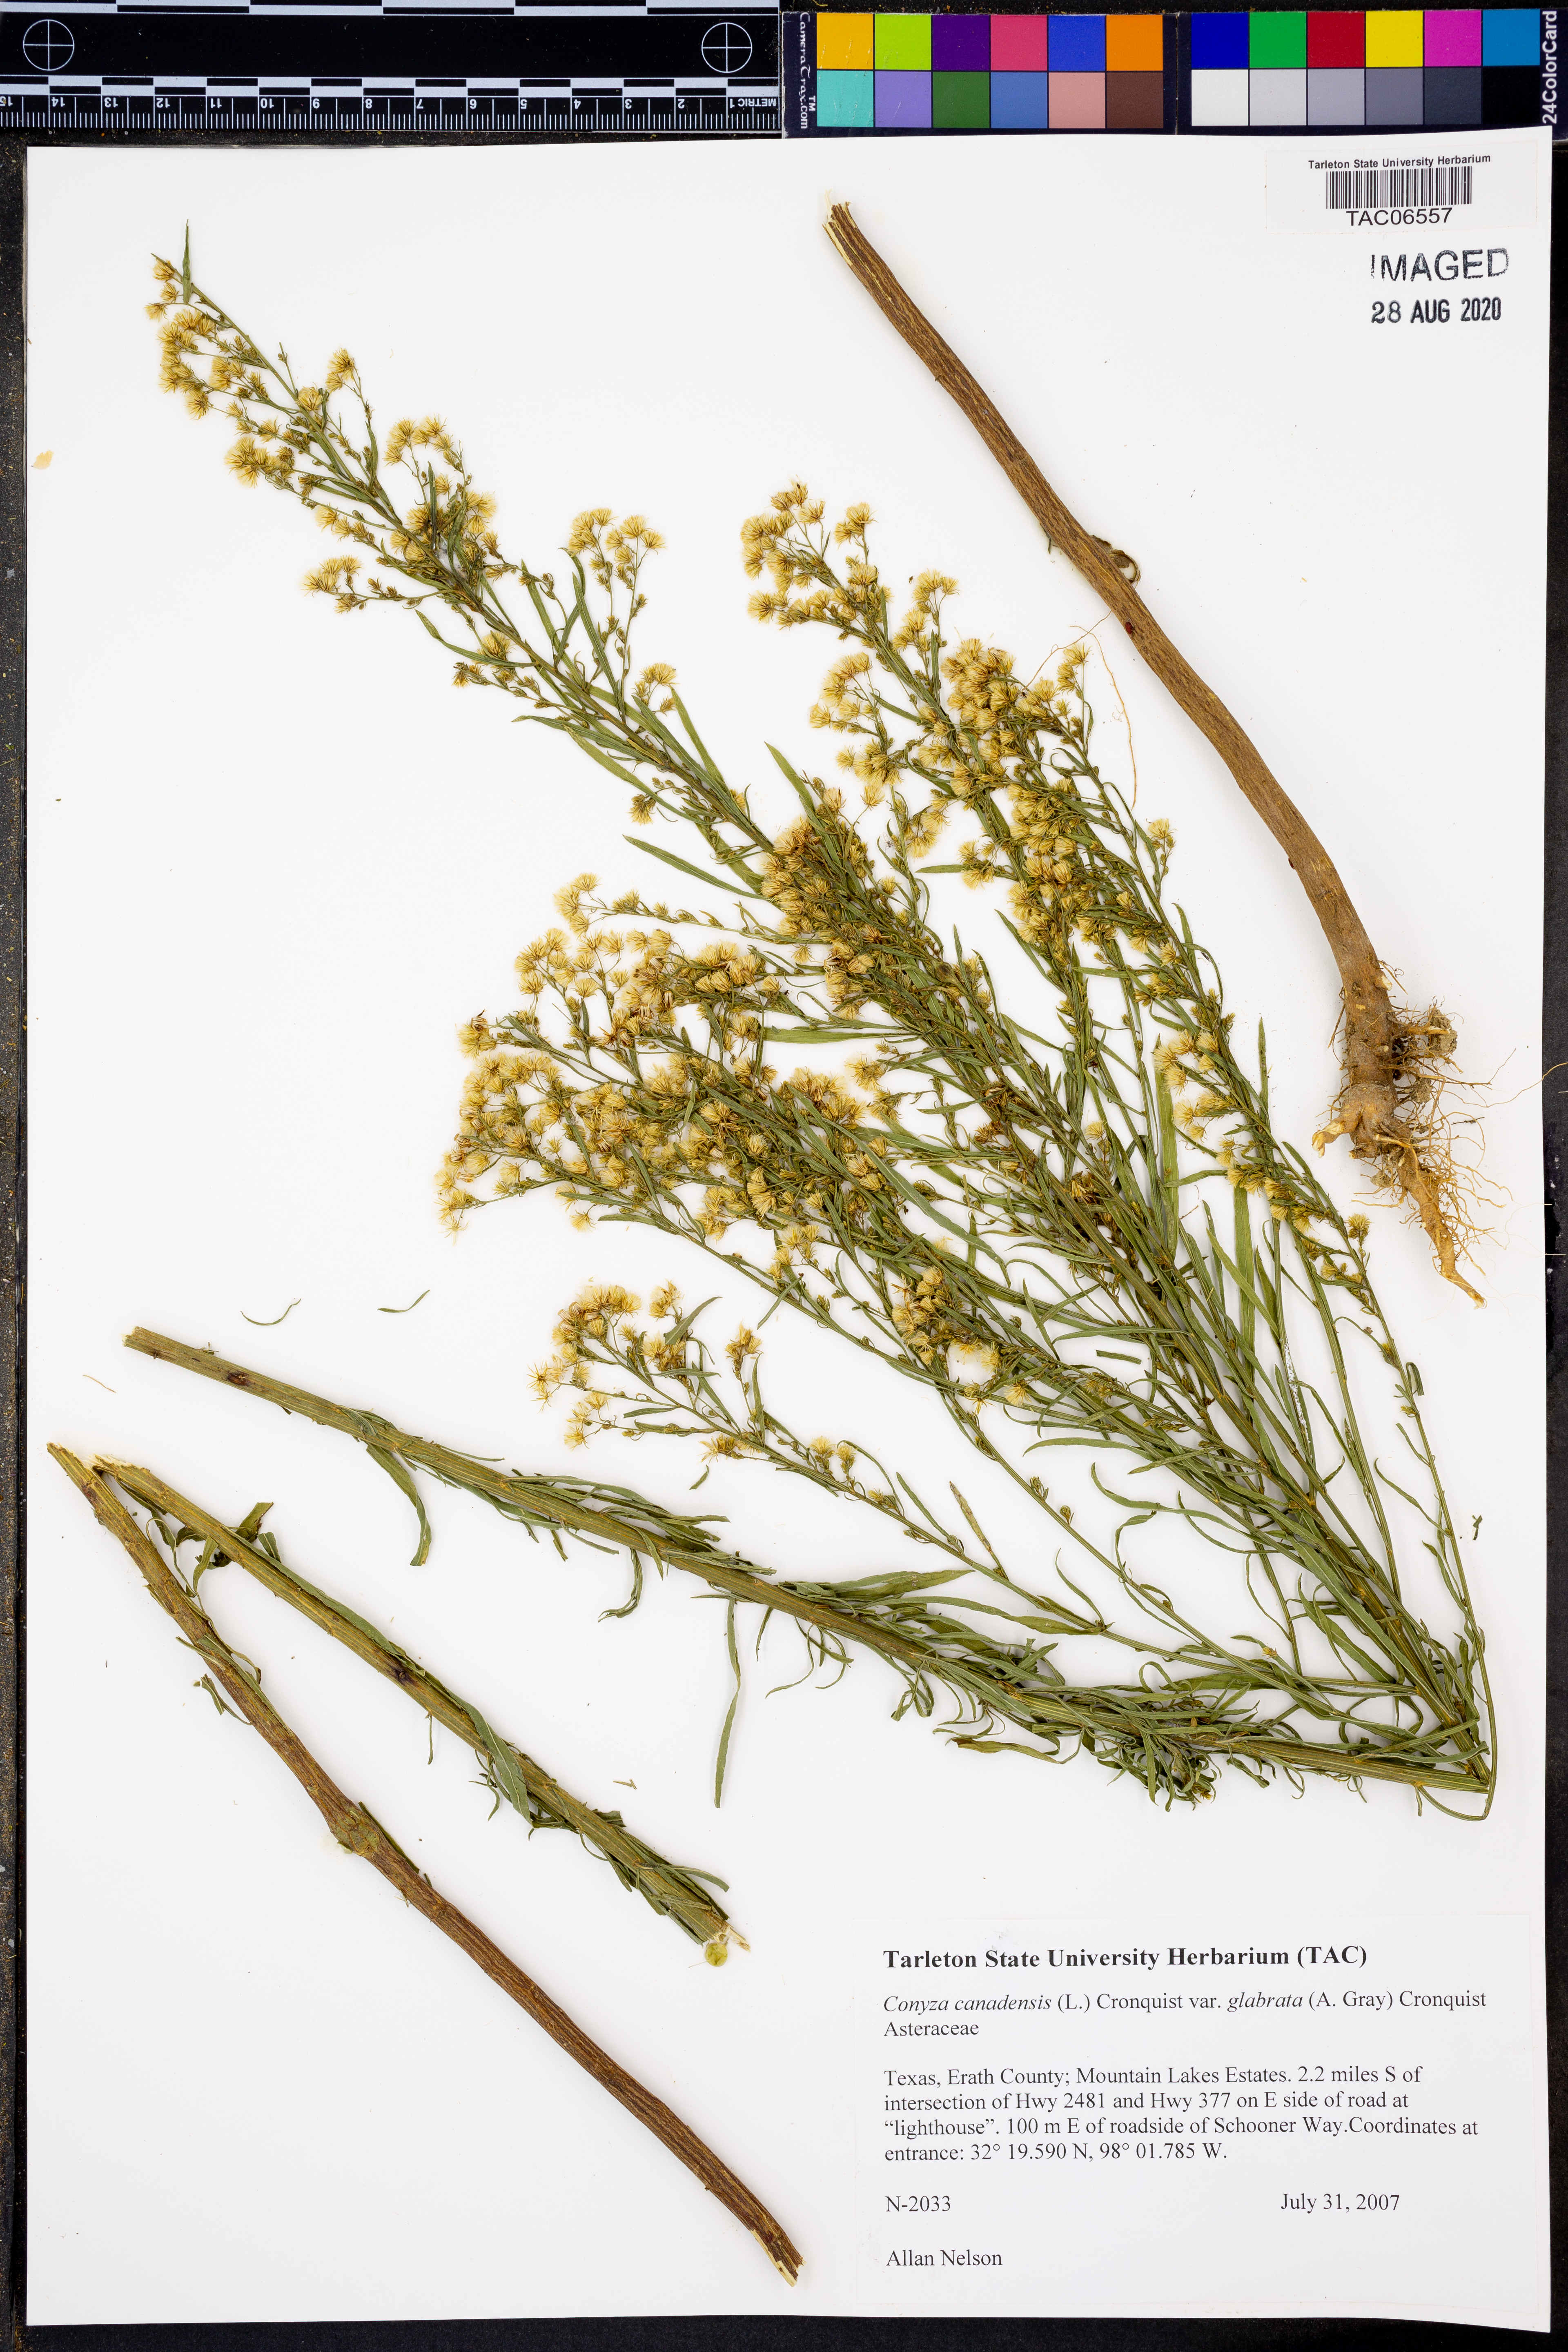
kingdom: Plantae
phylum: Tracheophyta
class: Magnoliopsida
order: Asterales
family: Asteraceae
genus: Erigeron
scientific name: Erigeron canadensis
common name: Canadian fleabane
